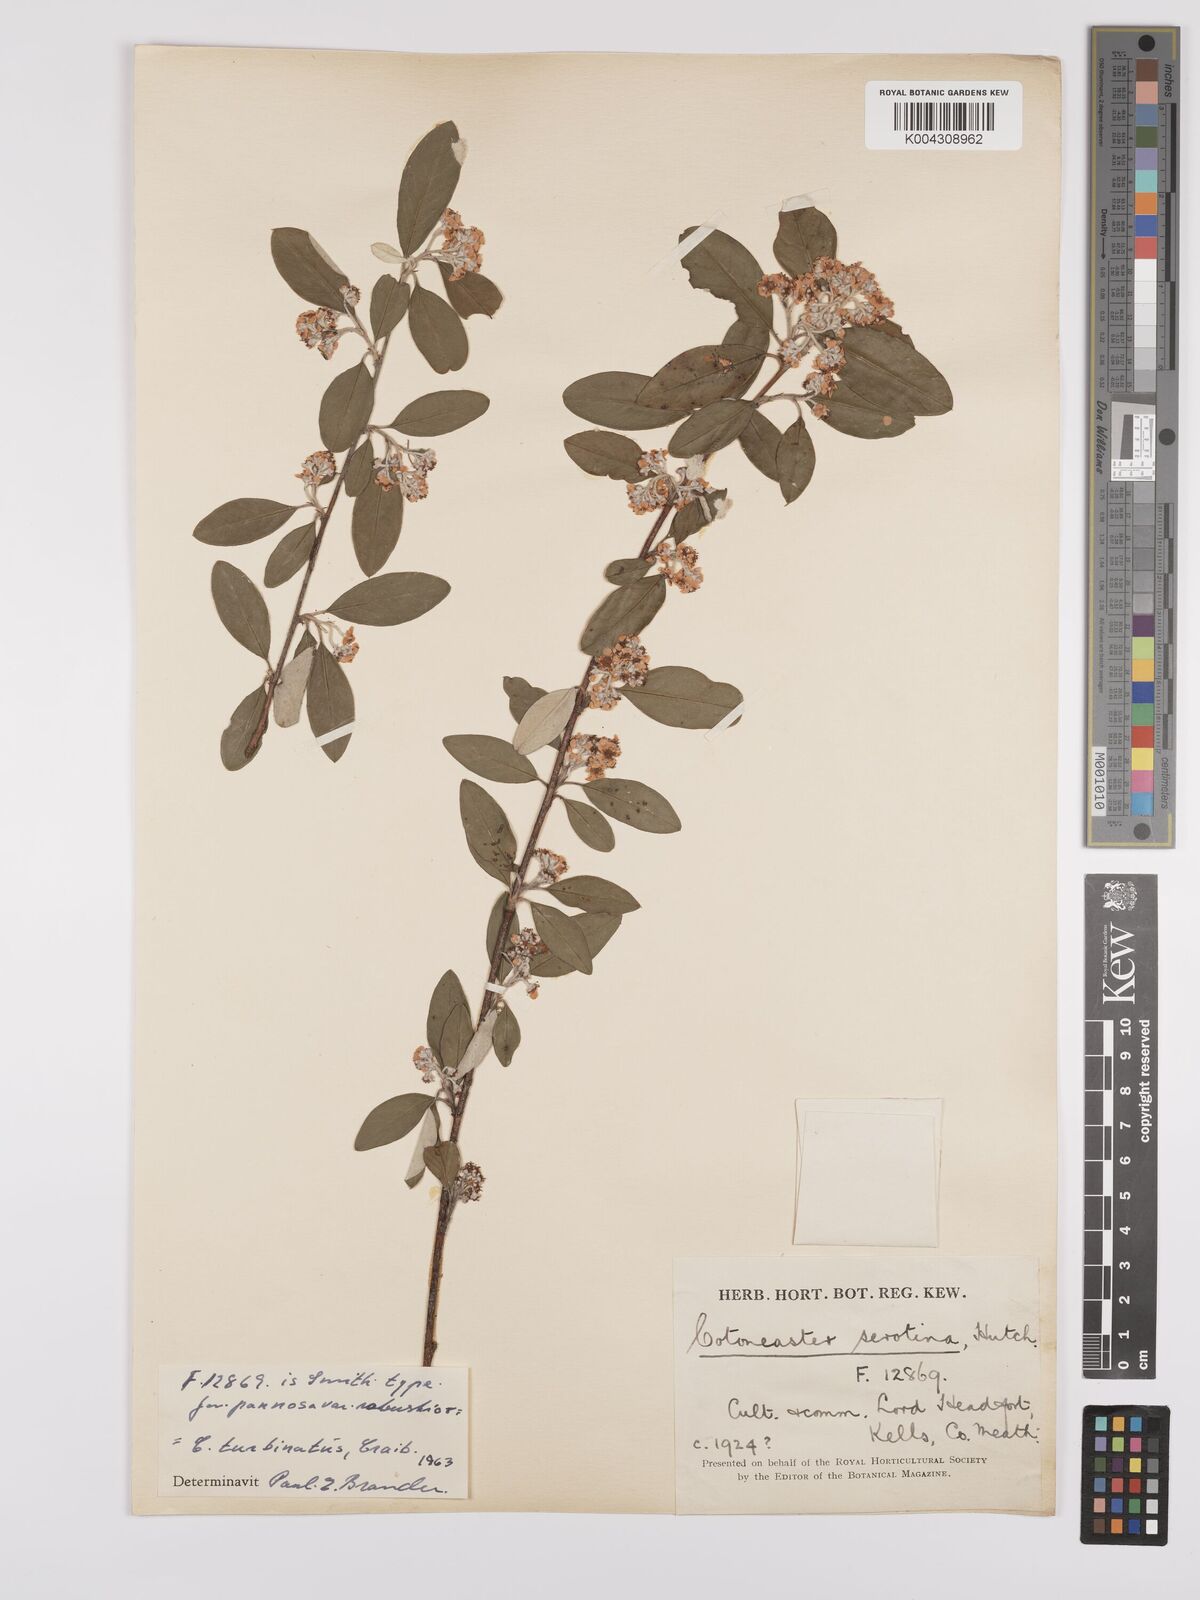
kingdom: Plantae
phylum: Tracheophyta
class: Magnoliopsida
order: Rosales
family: Rosaceae
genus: Cotoneaster
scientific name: Cotoneaster pannosus
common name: Silverleaf cotoneaster
